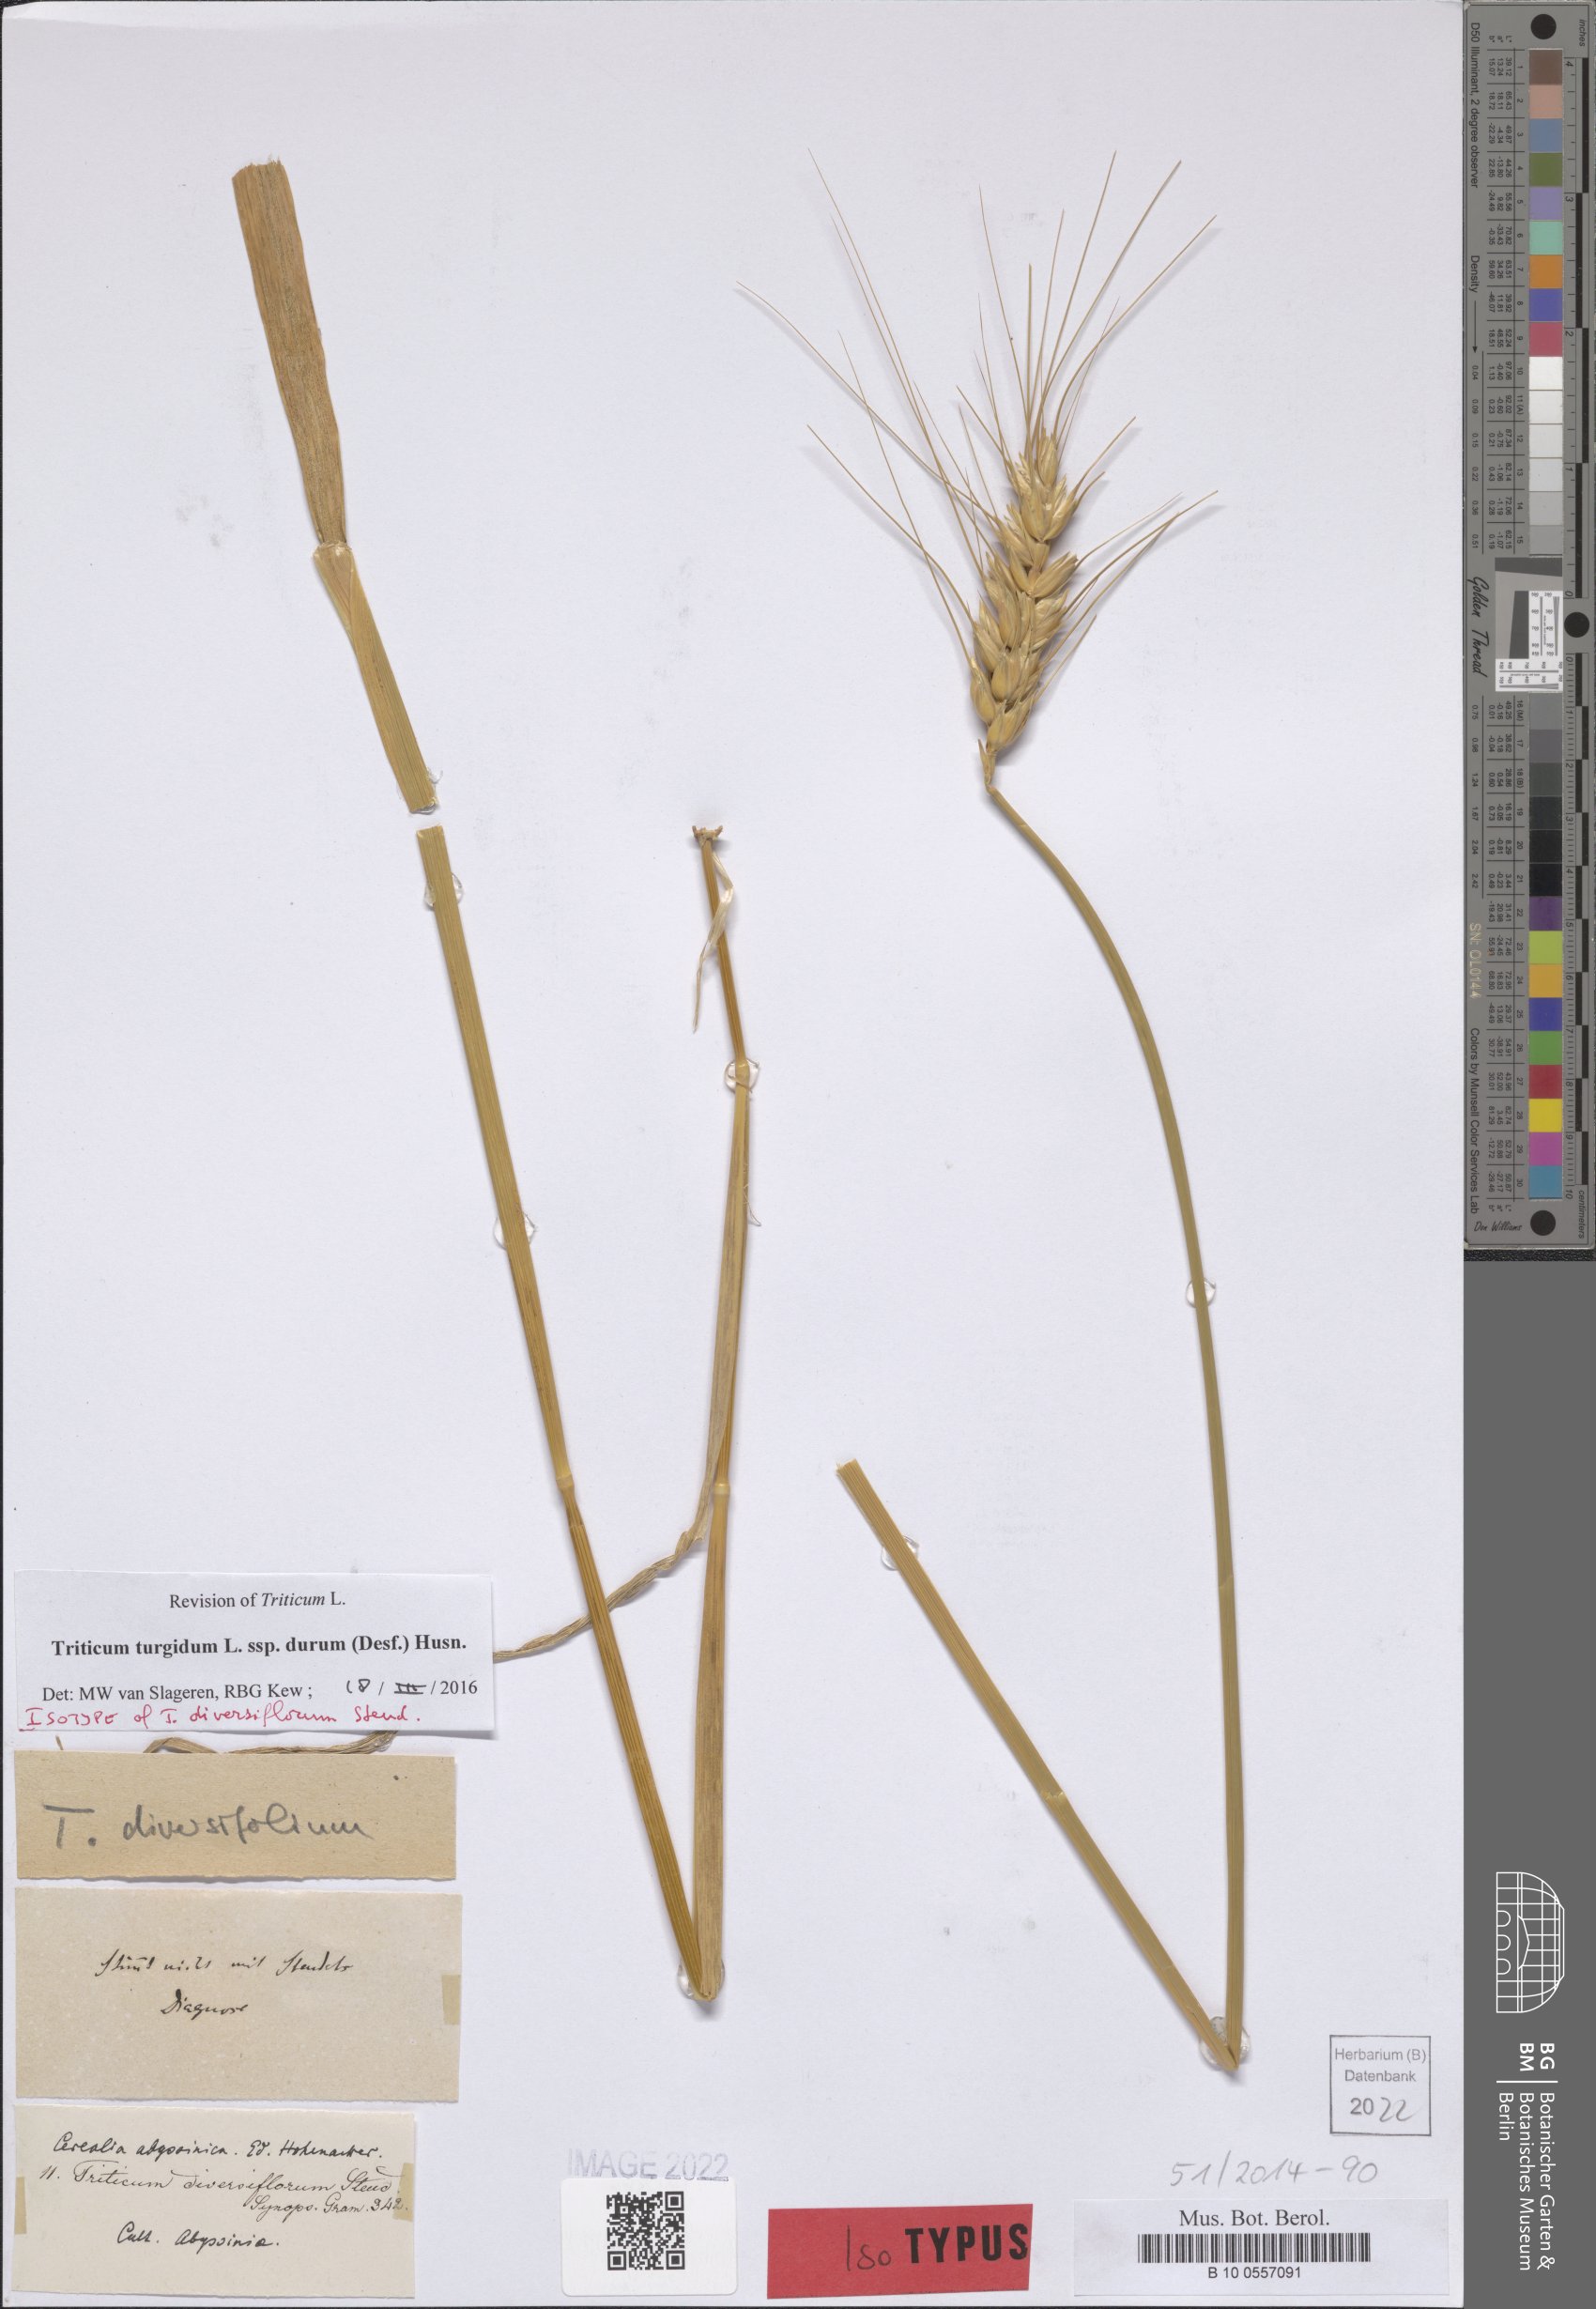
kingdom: Plantae
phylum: Tracheophyta
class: Liliopsida
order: Poales
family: Poaceae
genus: Triticum
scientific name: Triticum turgidum
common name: Rivet wheat
